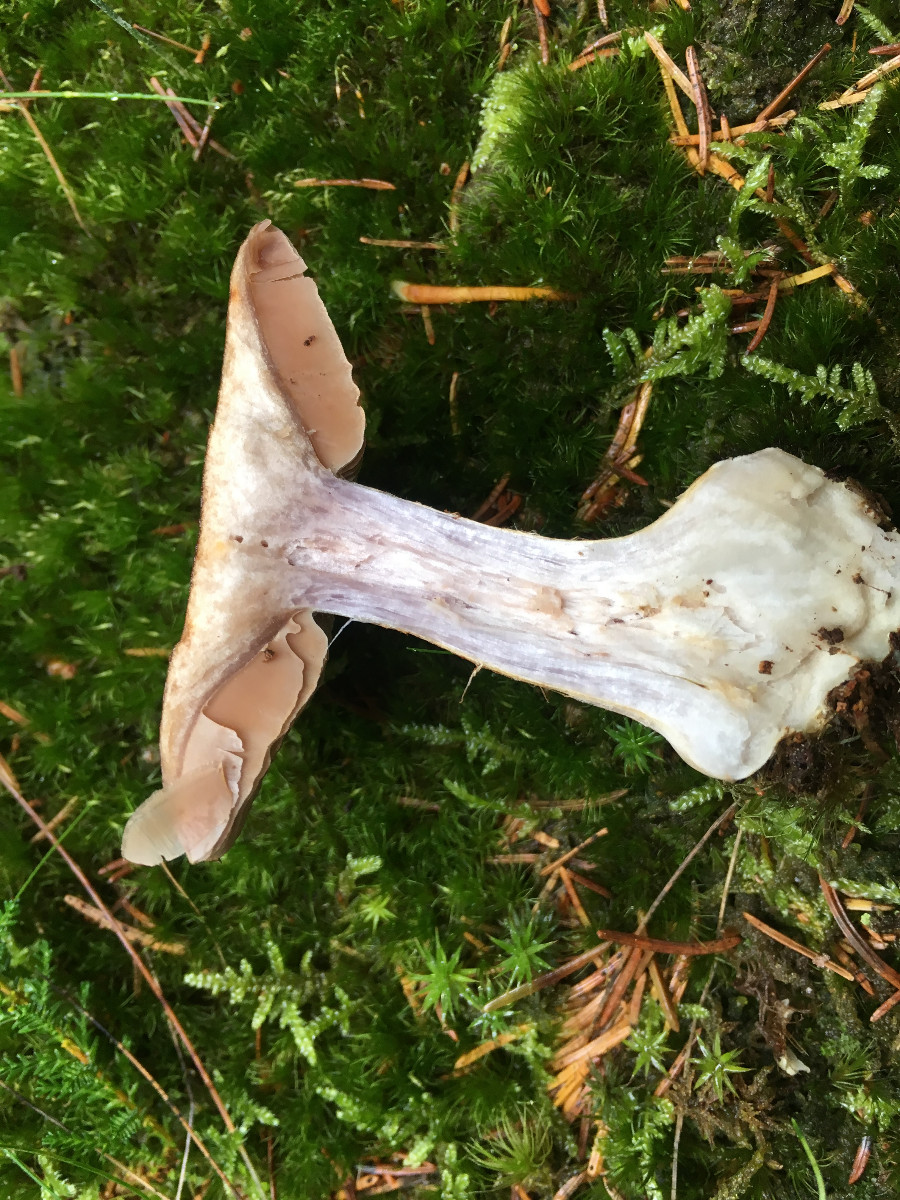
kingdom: Fungi
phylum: Basidiomycota
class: Agaricomycetes
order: Agaricales
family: Cortinariaceae
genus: Thaxterogaster
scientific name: Thaxterogaster sphagnophilus
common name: vandplettet slørhat
